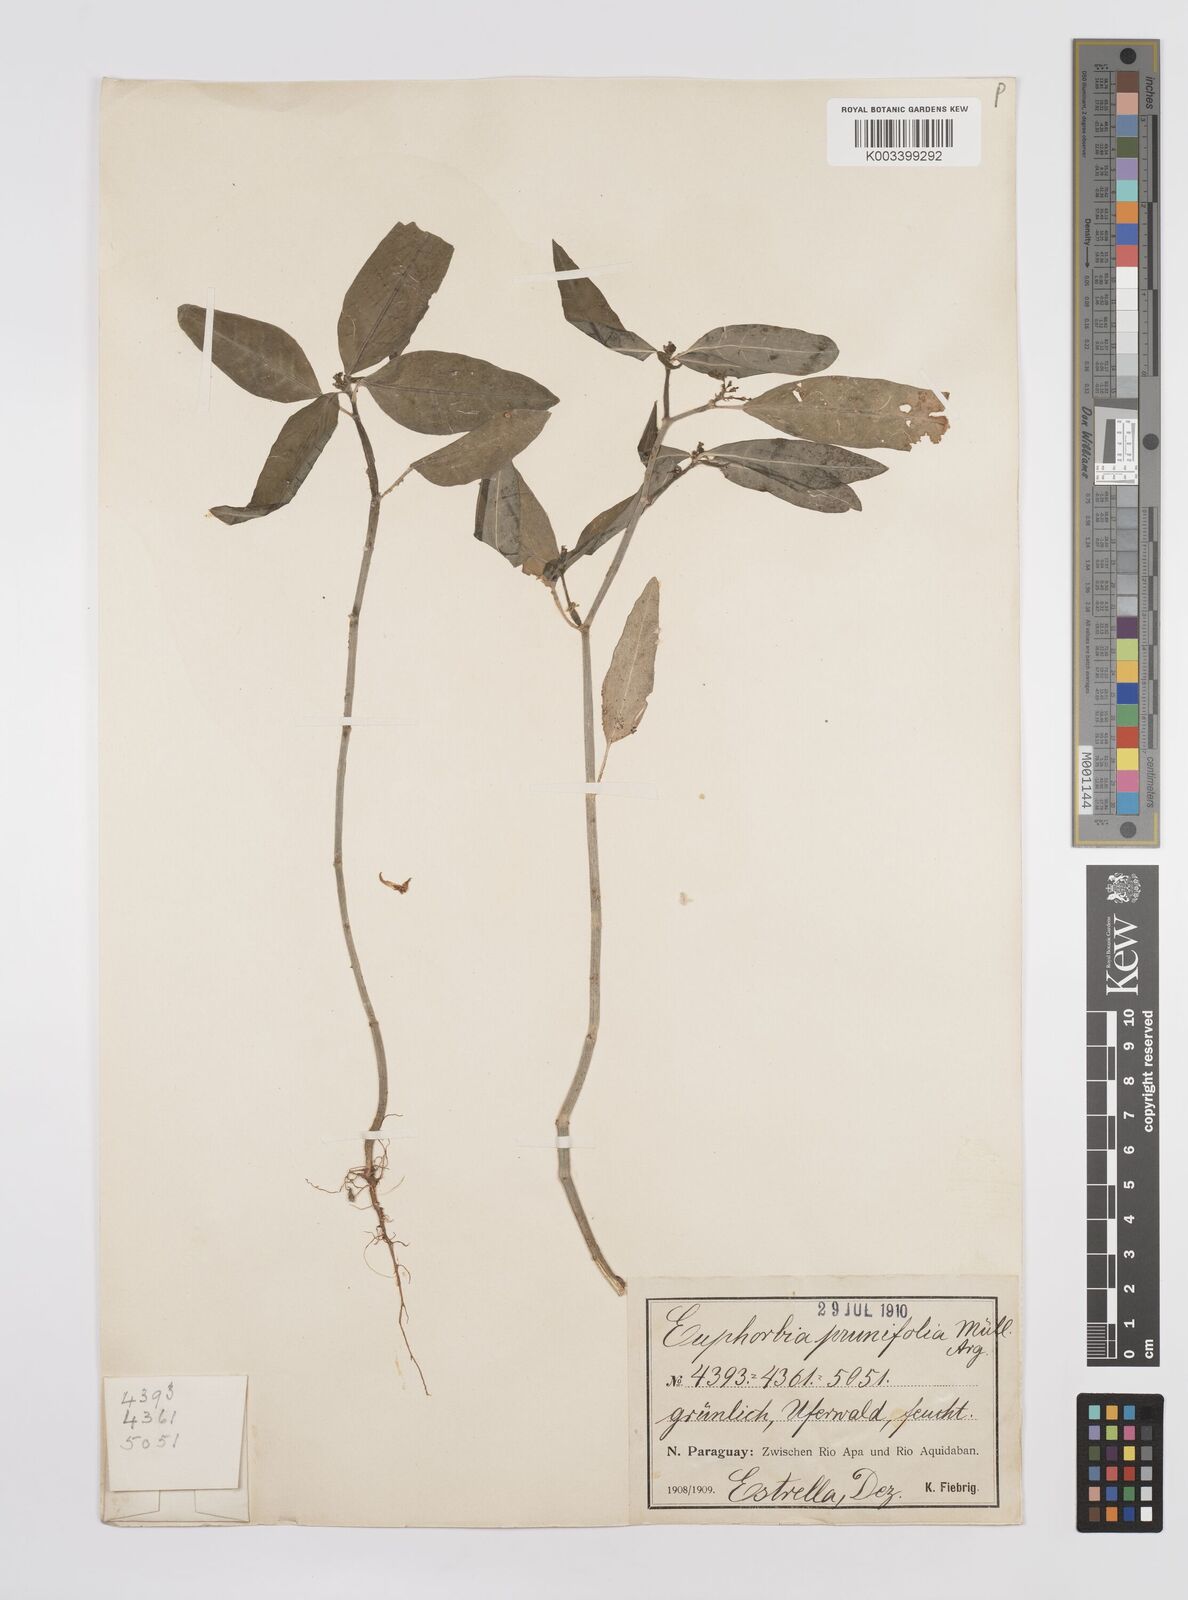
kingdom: Plantae
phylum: Tracheophyta
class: Magnoliopsida
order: Malpighiales
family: Euphorbiaceae
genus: Euphorbia
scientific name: Euphorbia heterophylla
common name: Mexican fireplant
